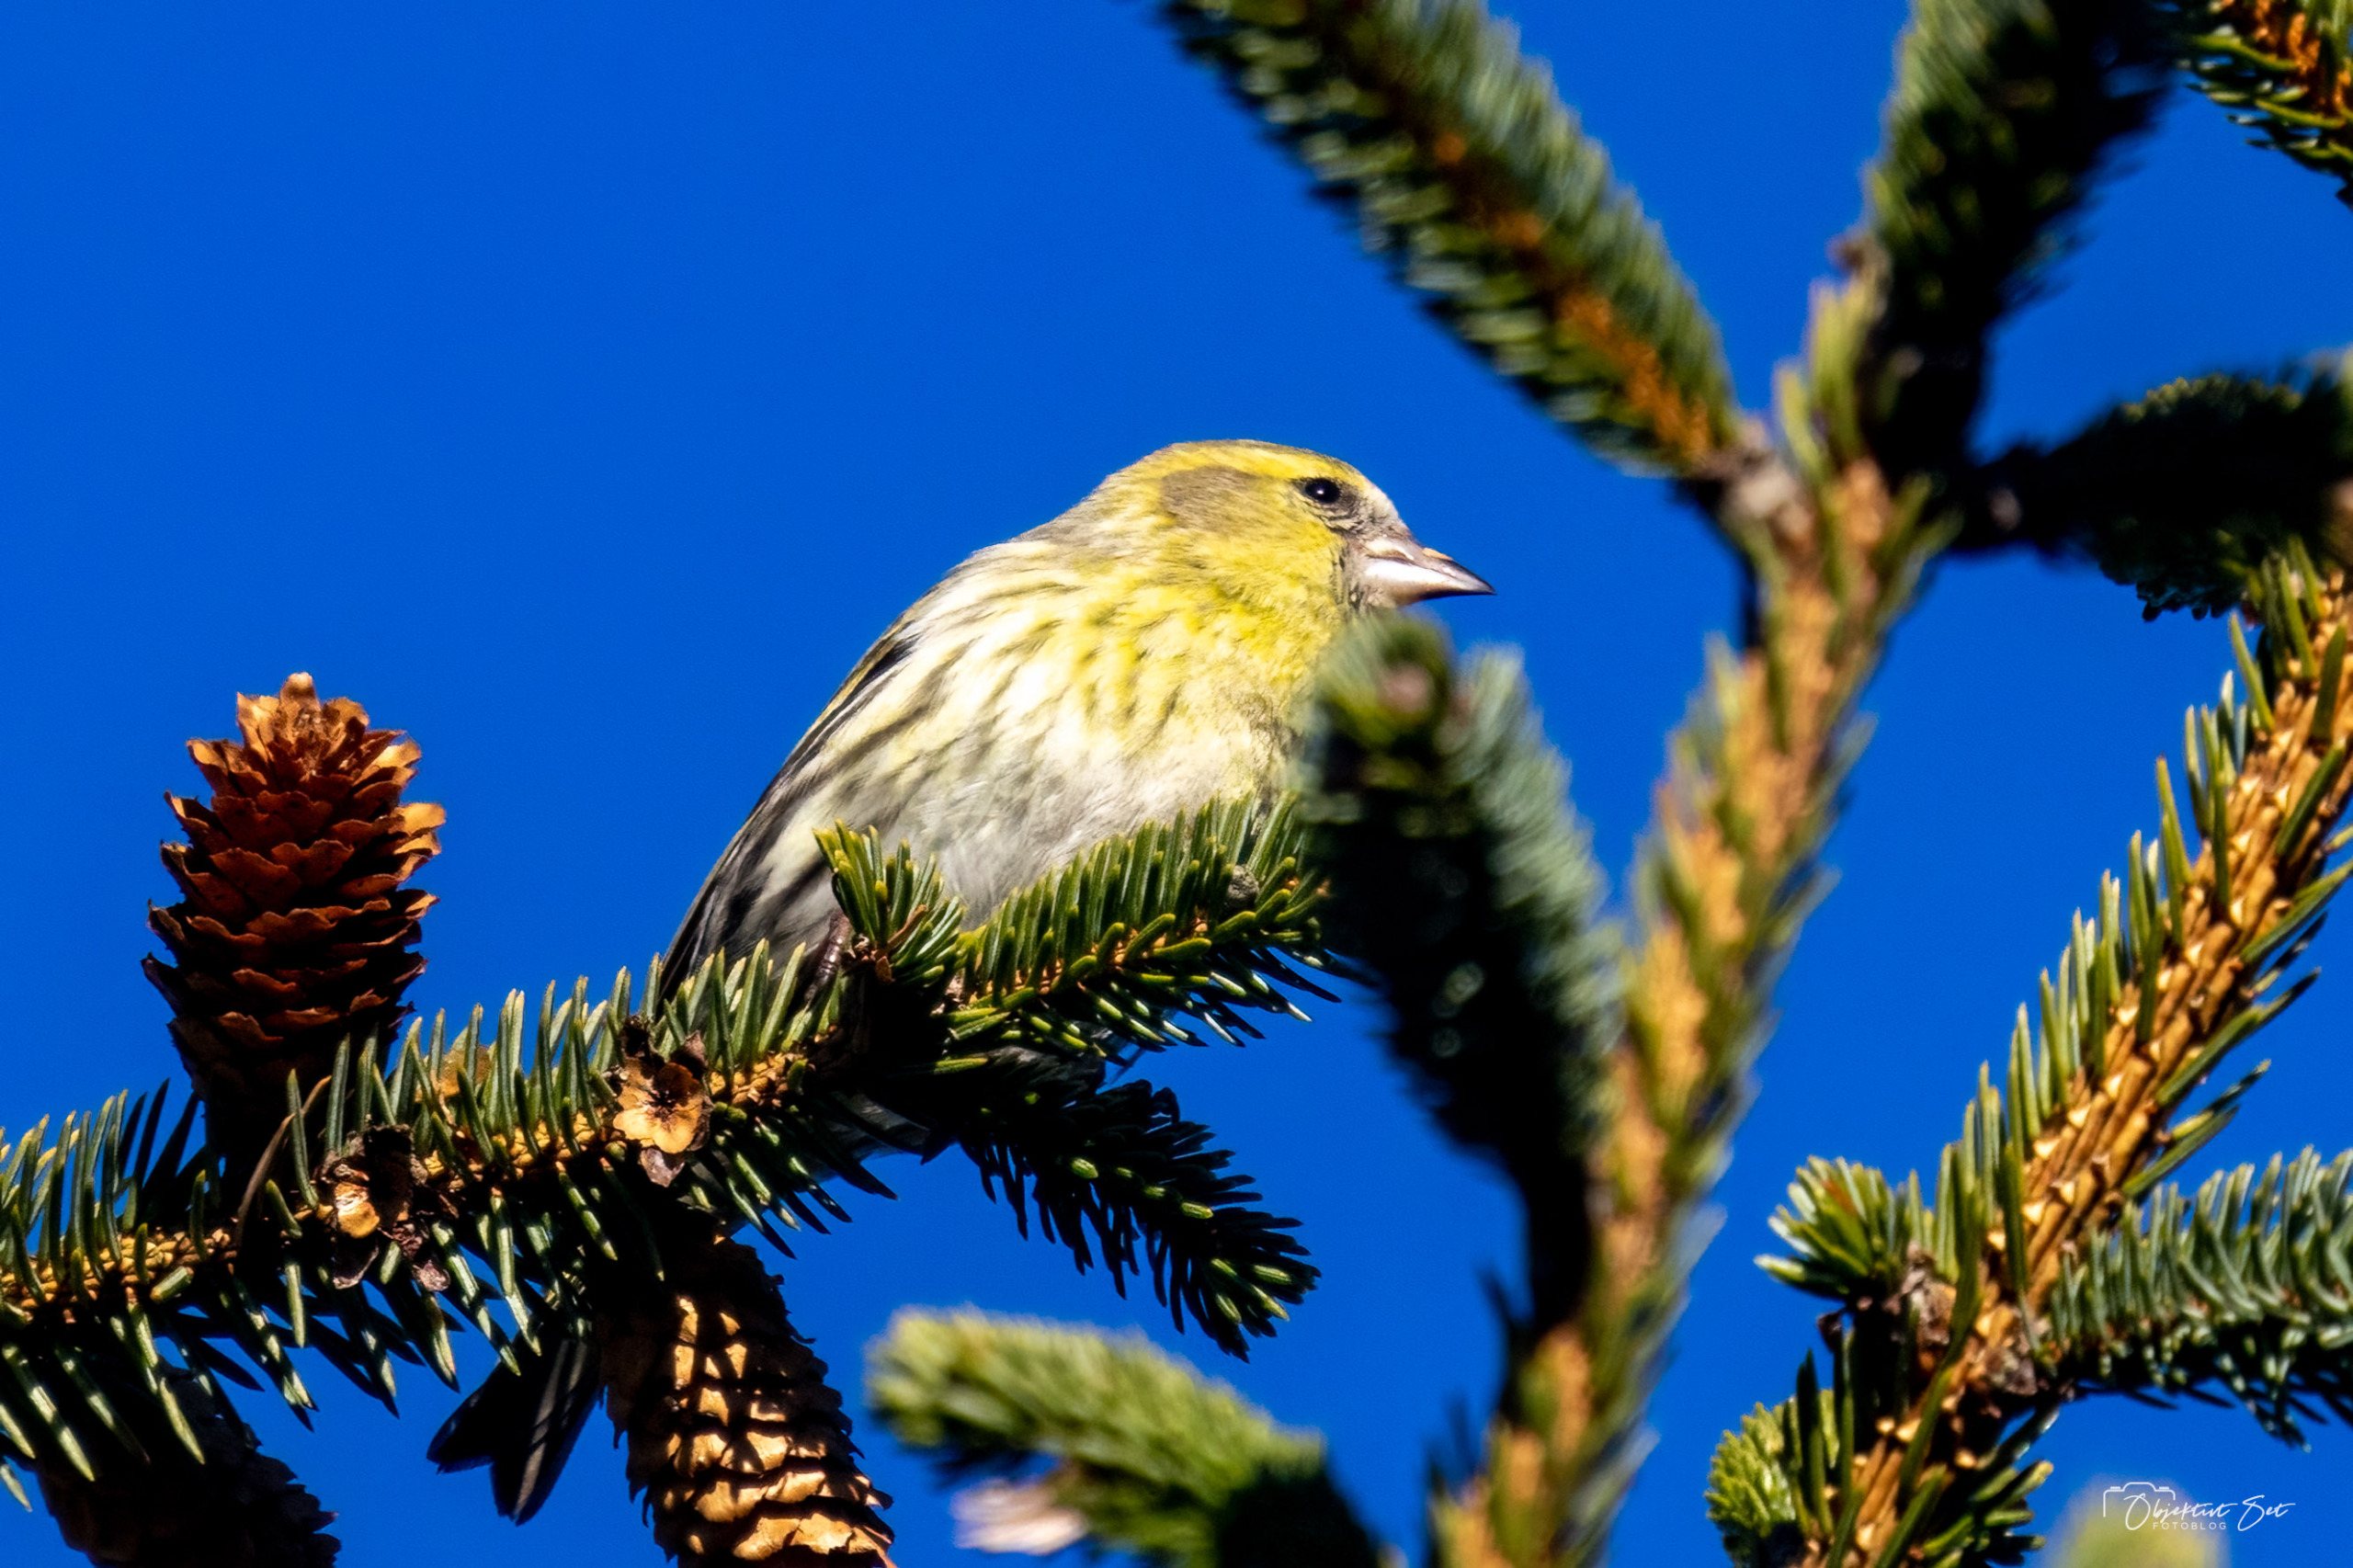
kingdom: Animalia
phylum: Chordata
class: Aves
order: Passeriformes
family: Fringillidae
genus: Spinus
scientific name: Spinus spinus
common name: Grønsisken
